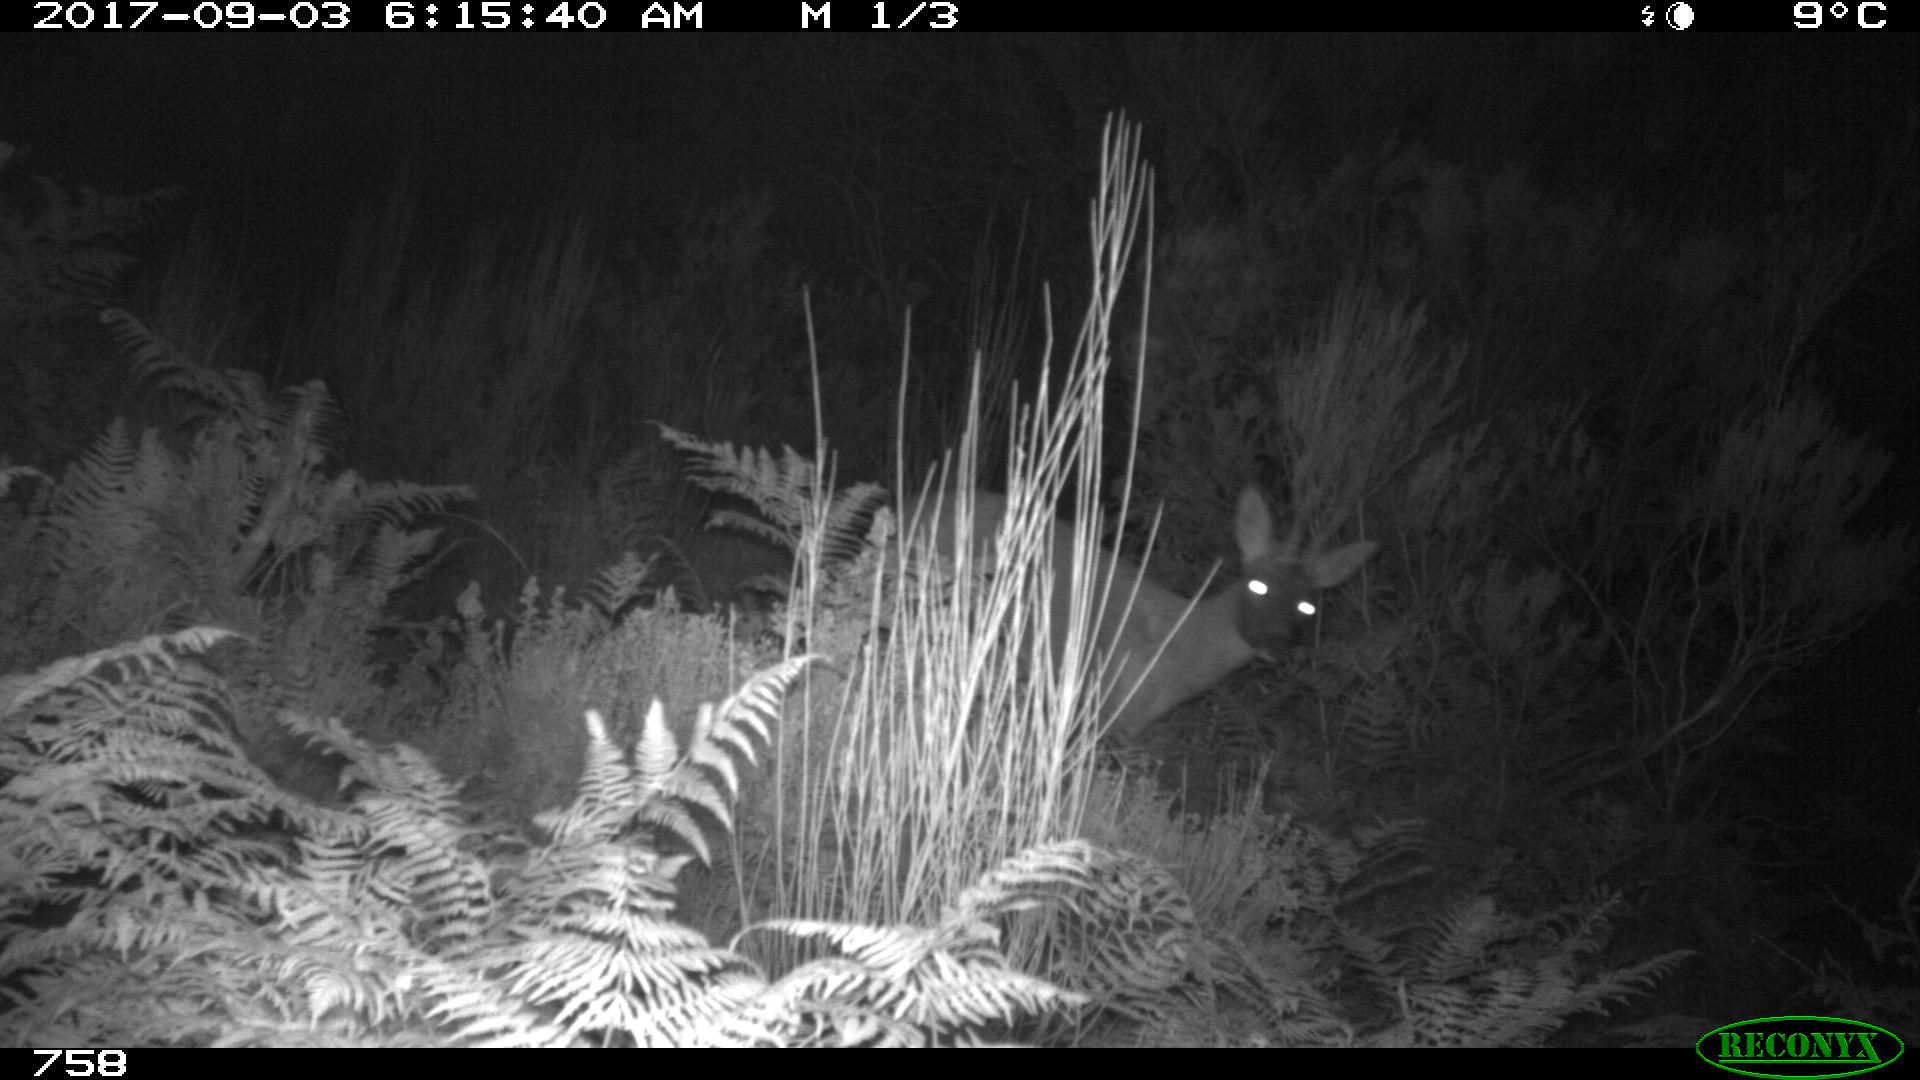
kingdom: Animalia
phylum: Chordata
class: Mammalia
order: Artiodactyla
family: Cervidae
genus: Capreolus
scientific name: Capreolus capreolus
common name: Western roe deer
